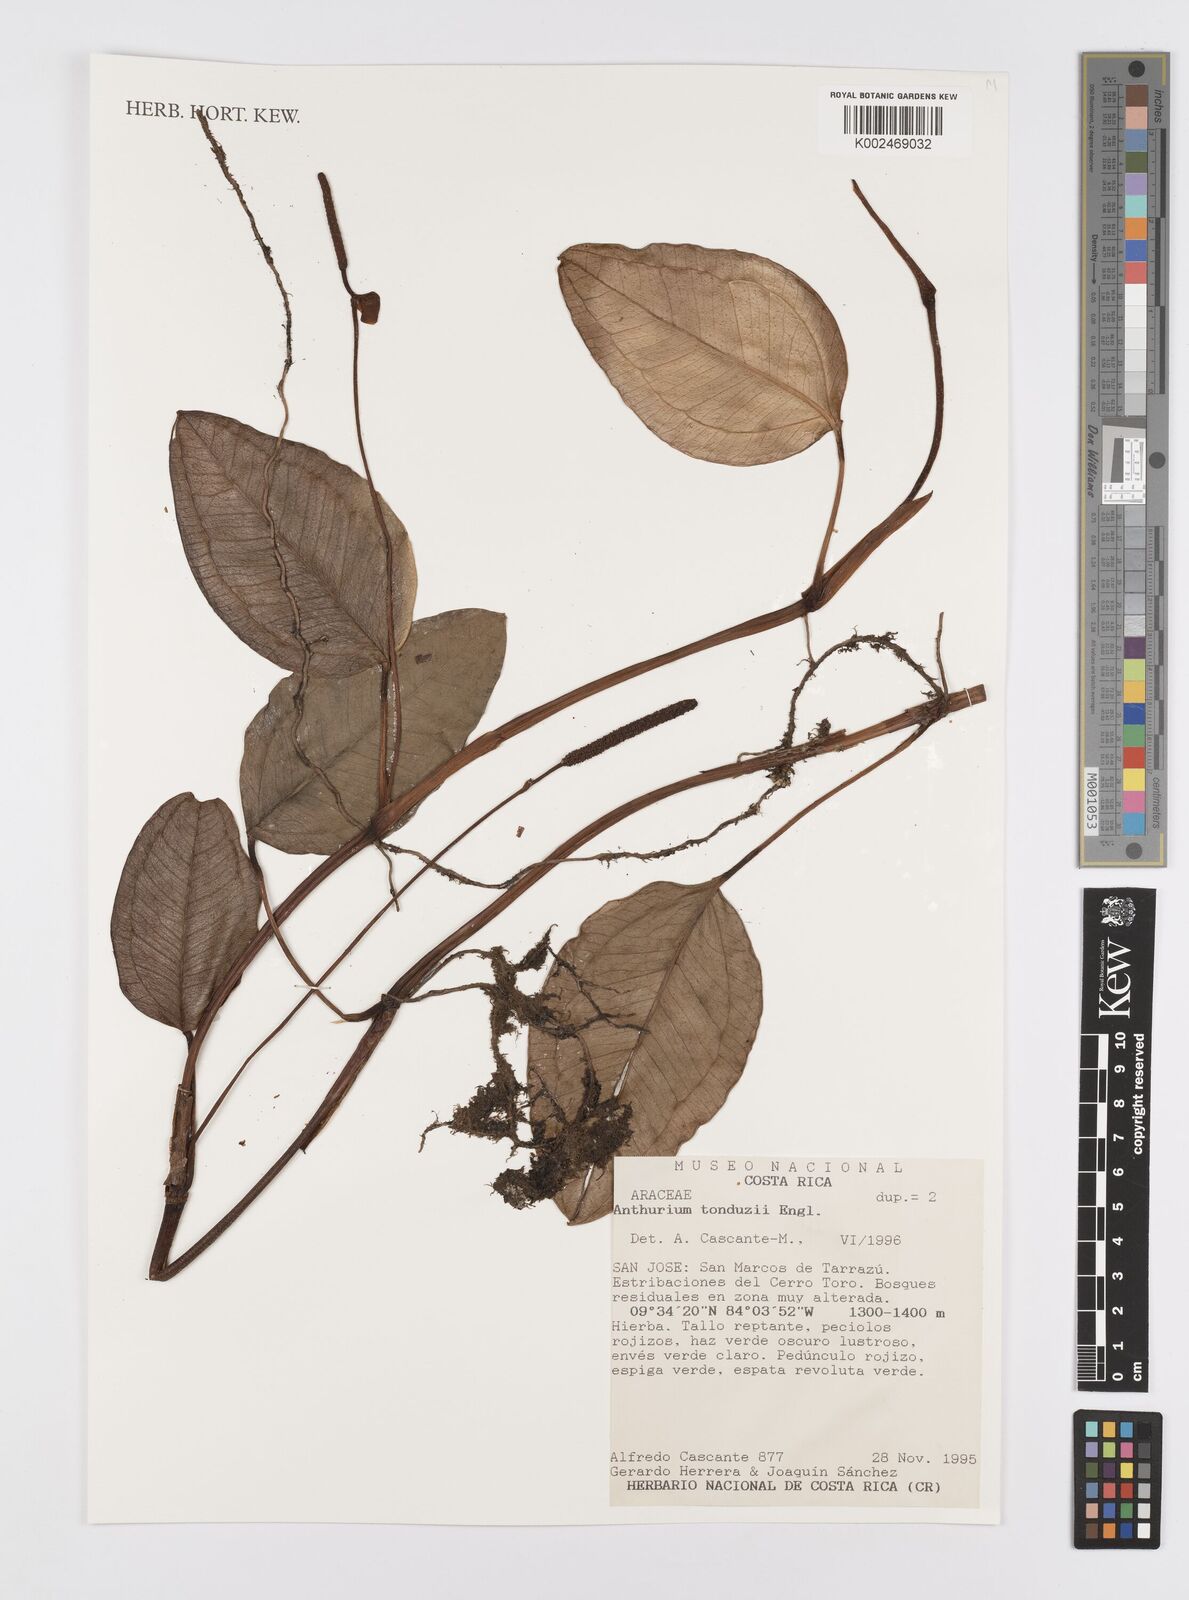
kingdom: Plantae
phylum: Tracheophyta
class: Liliopsida
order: Alismatales
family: Araceae
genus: Anthurium
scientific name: Anthurium tonduzii
